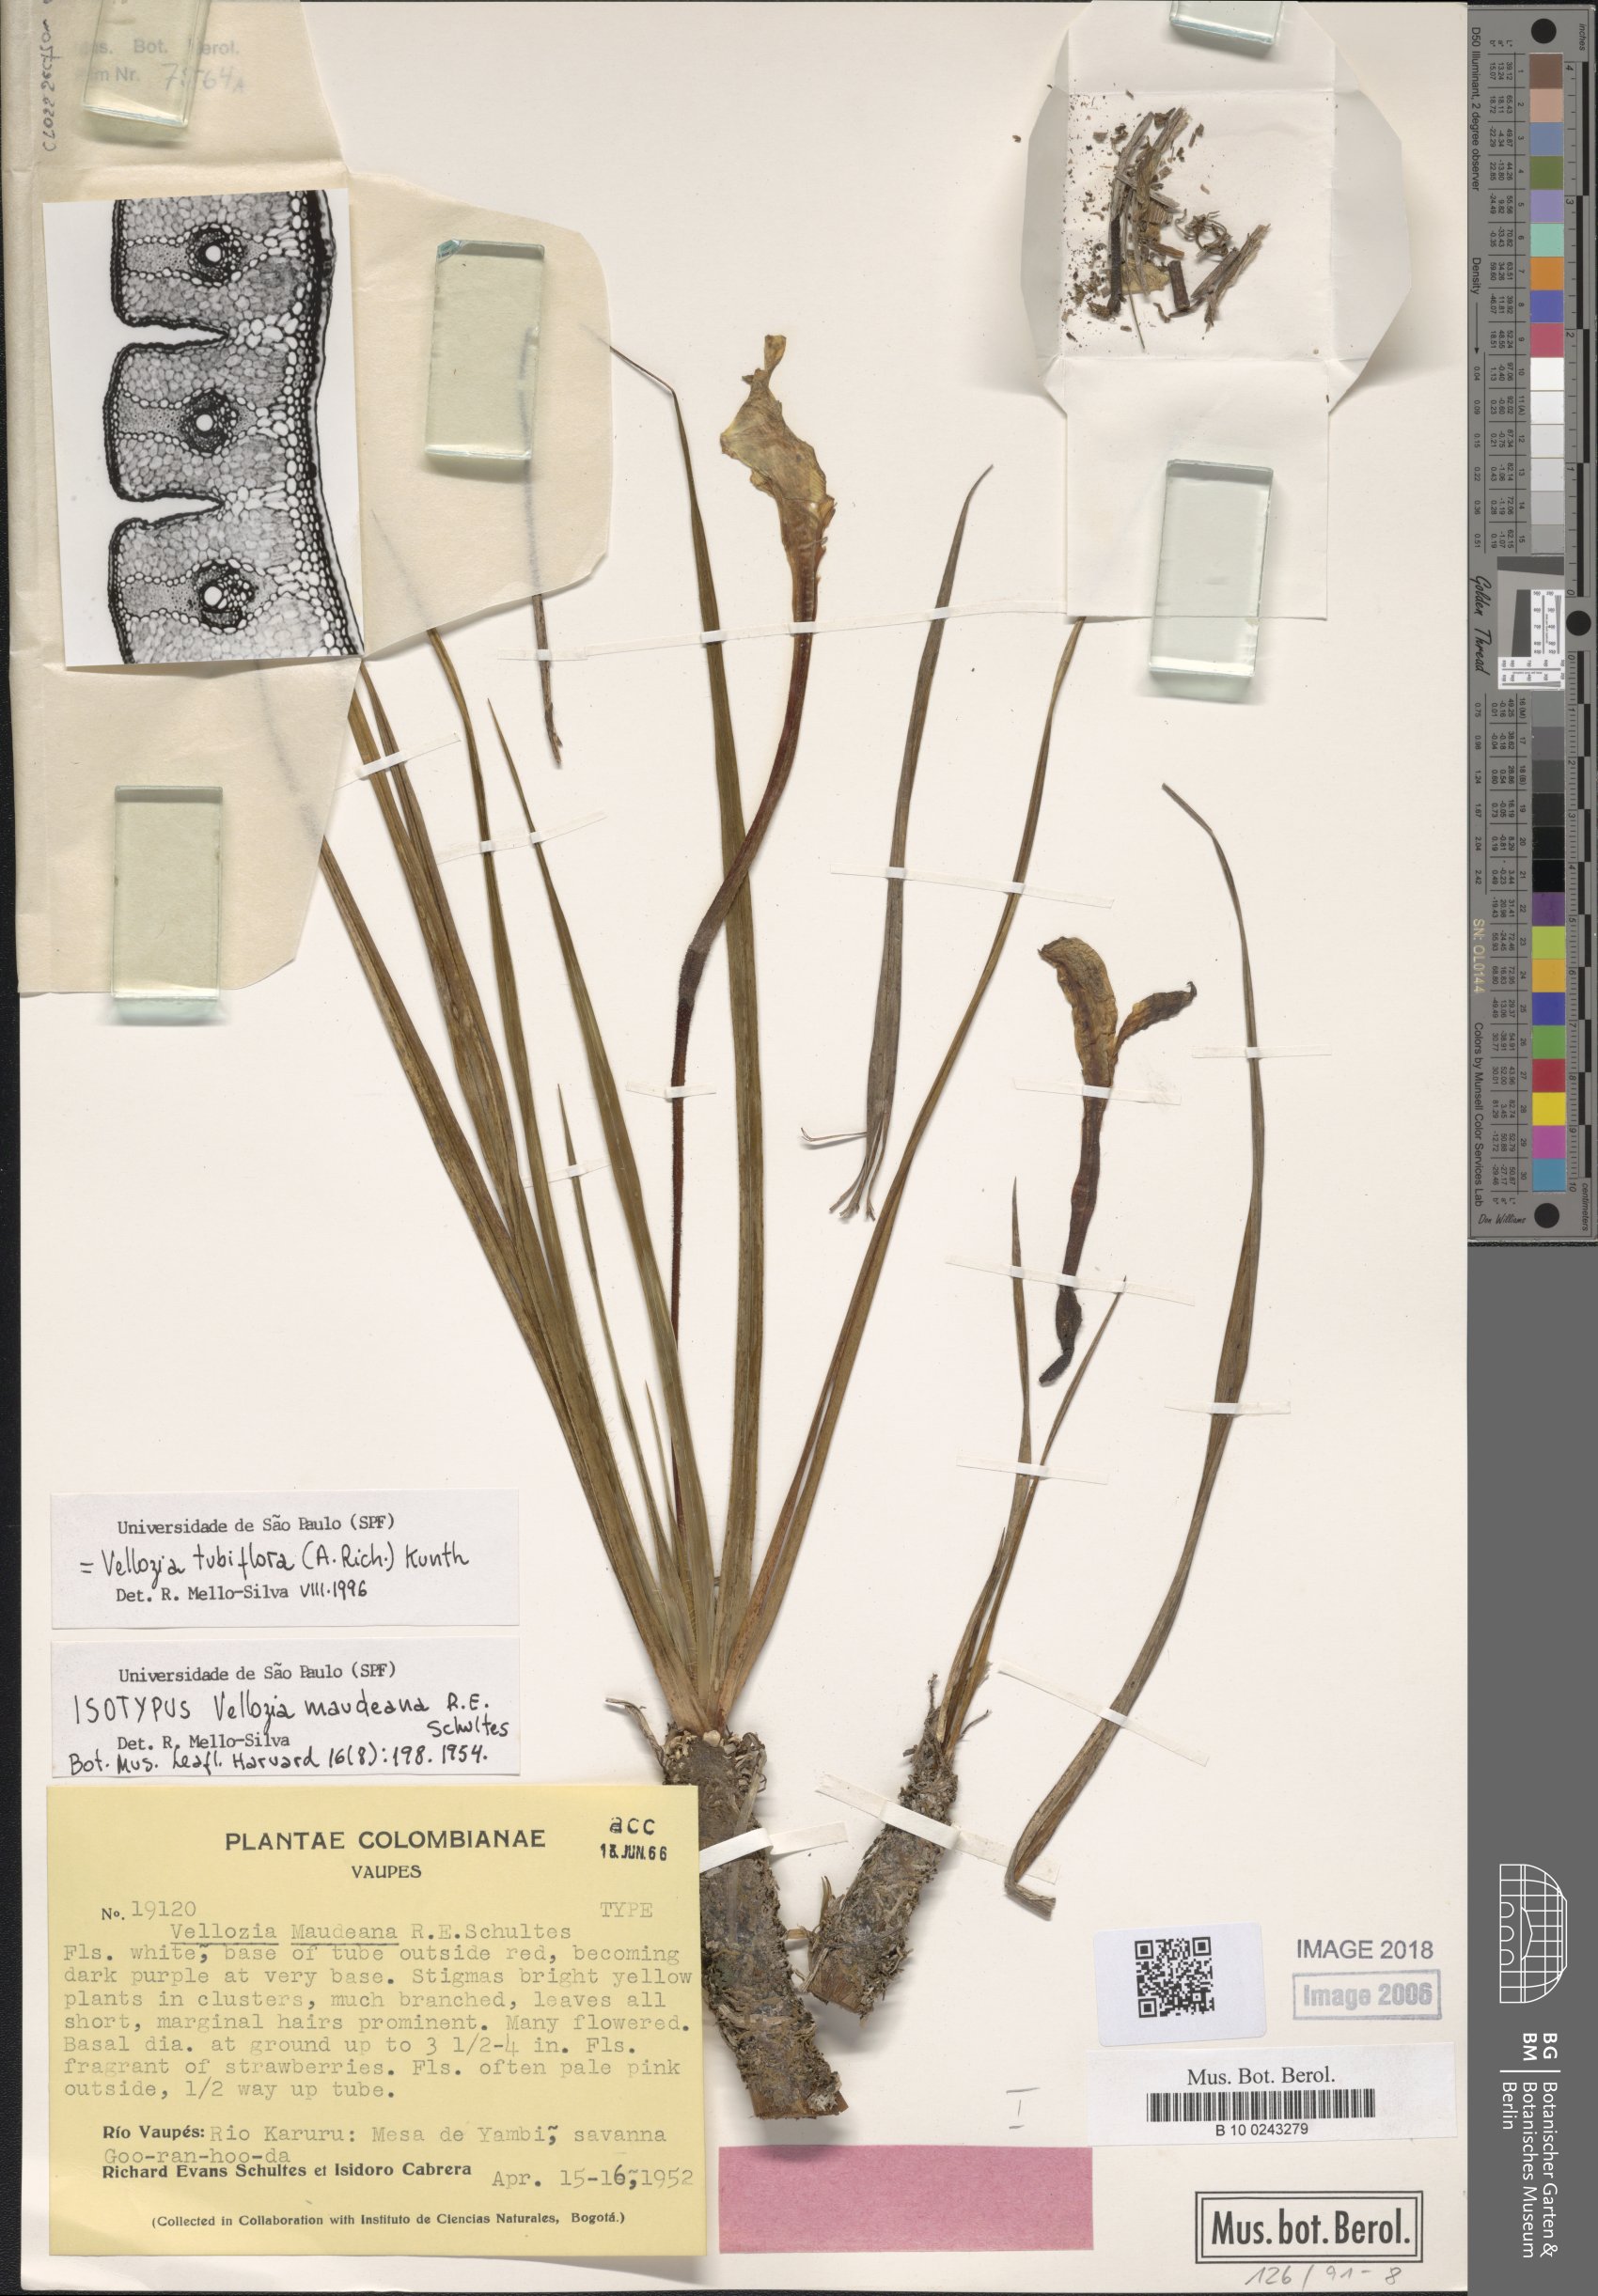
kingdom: Plantae
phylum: Tracheophyta
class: Liliopsida
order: Pandanales
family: Velloziaceae
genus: Vellozia
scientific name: Vellozia tubiflora
